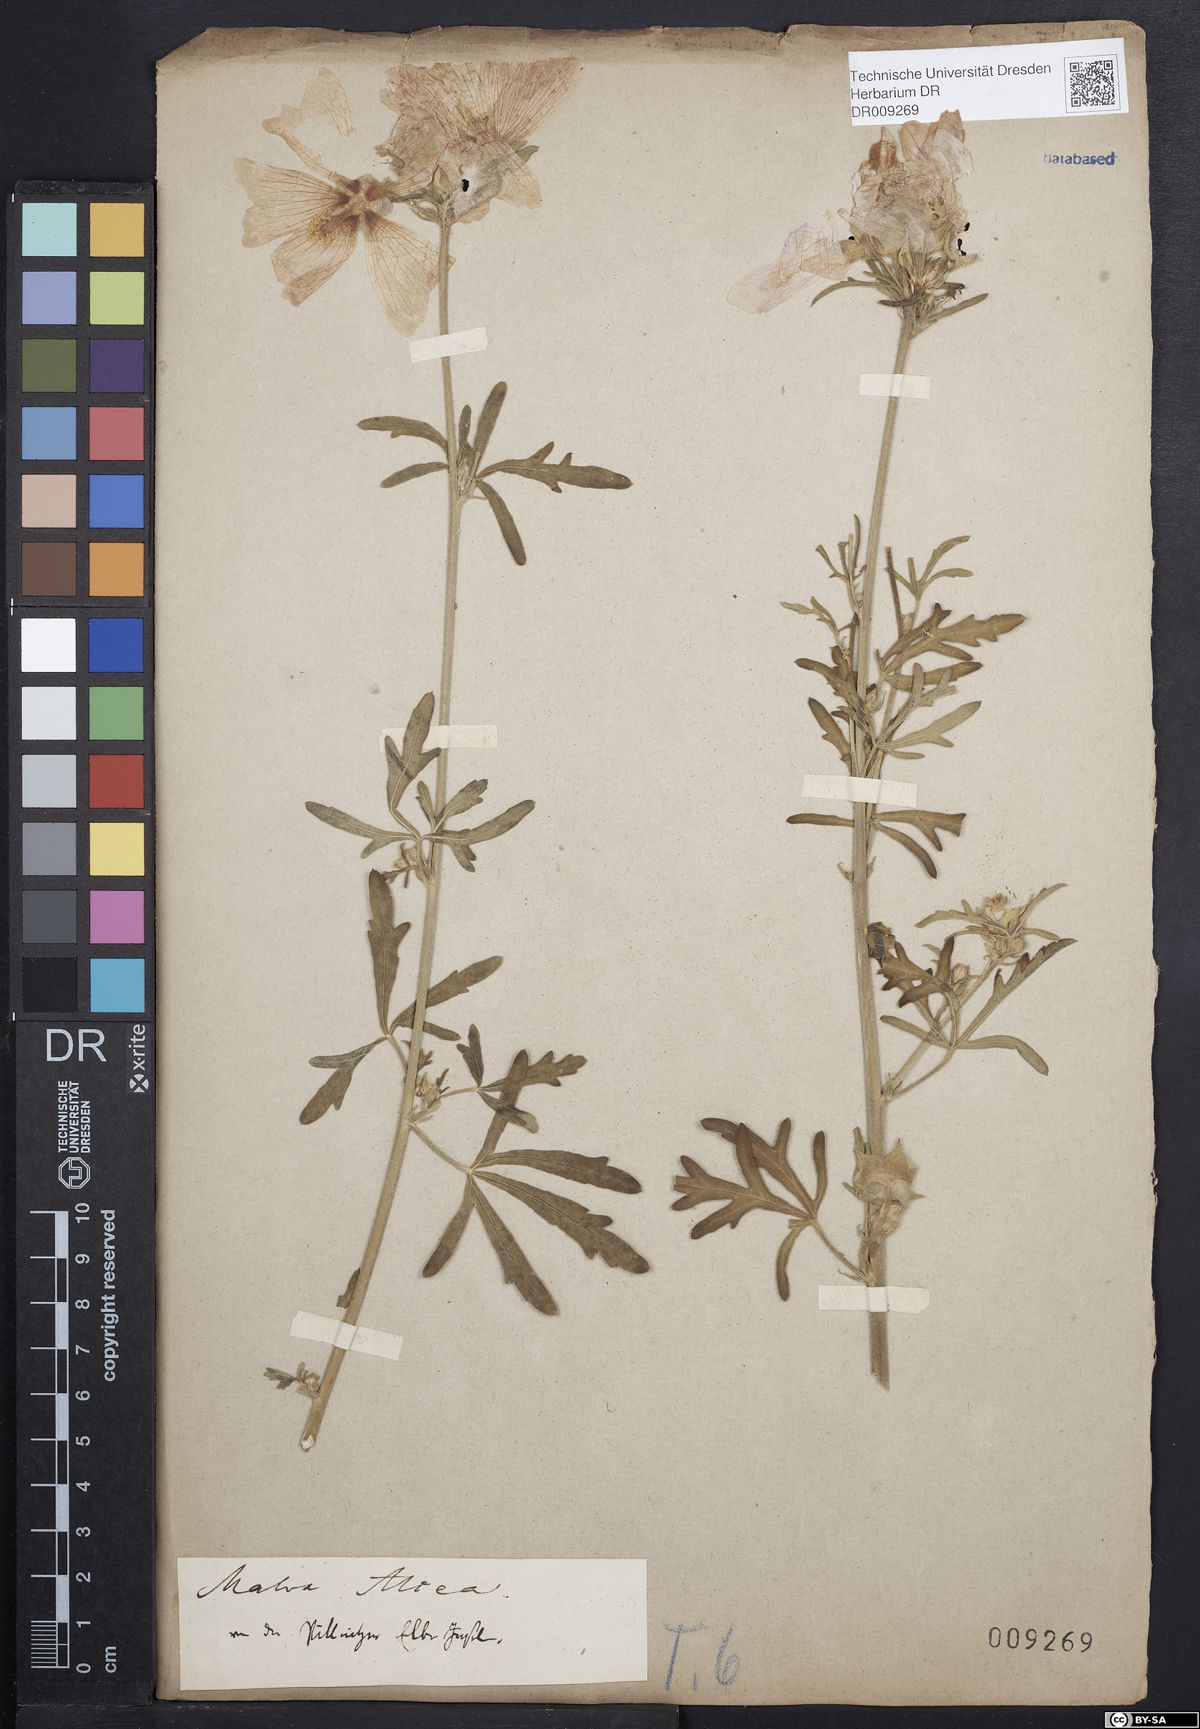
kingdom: Plantae
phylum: Tracheophyta
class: Magnoliopsida
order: Malvales
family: Malvaceae
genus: Malva
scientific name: Malva alcea
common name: Greater musk-mallow
